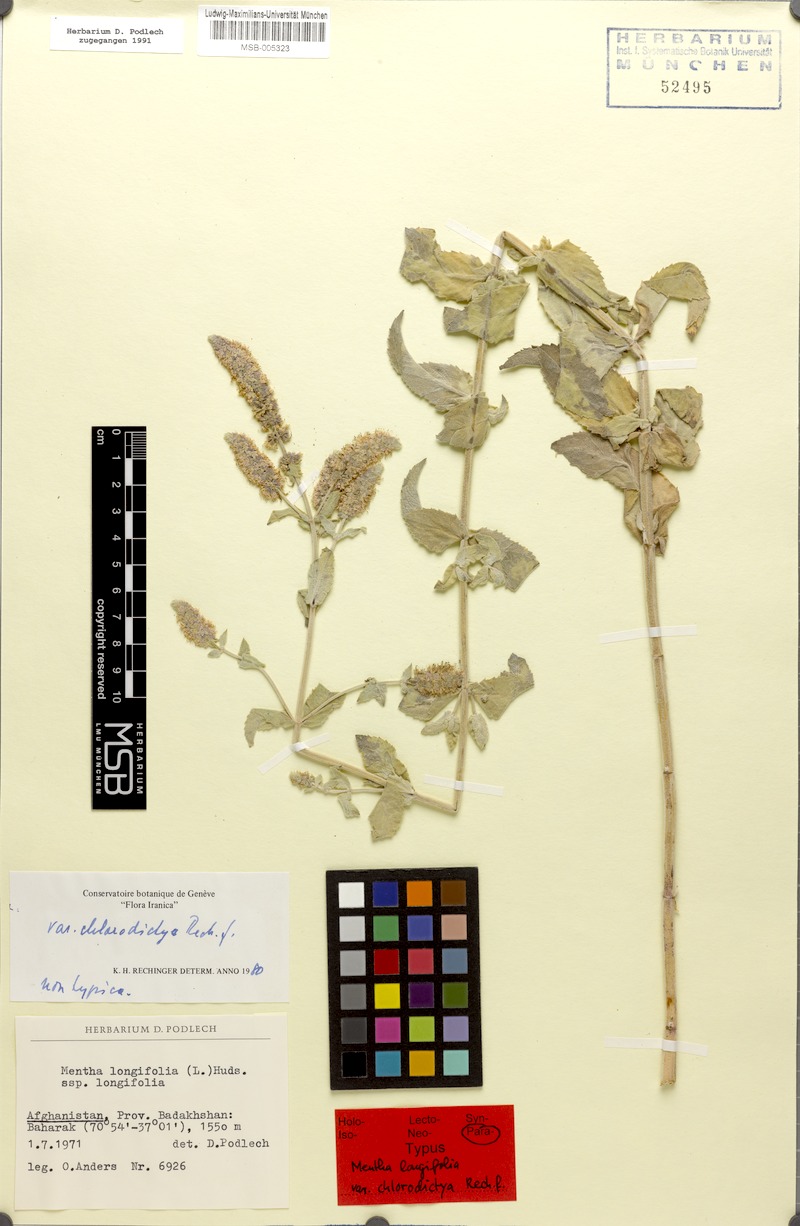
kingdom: Plantae
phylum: Tracheophyta
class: Magnoliopsida
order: Lamiales
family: Lamiaceae
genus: Mentha
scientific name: Mentha royleana
